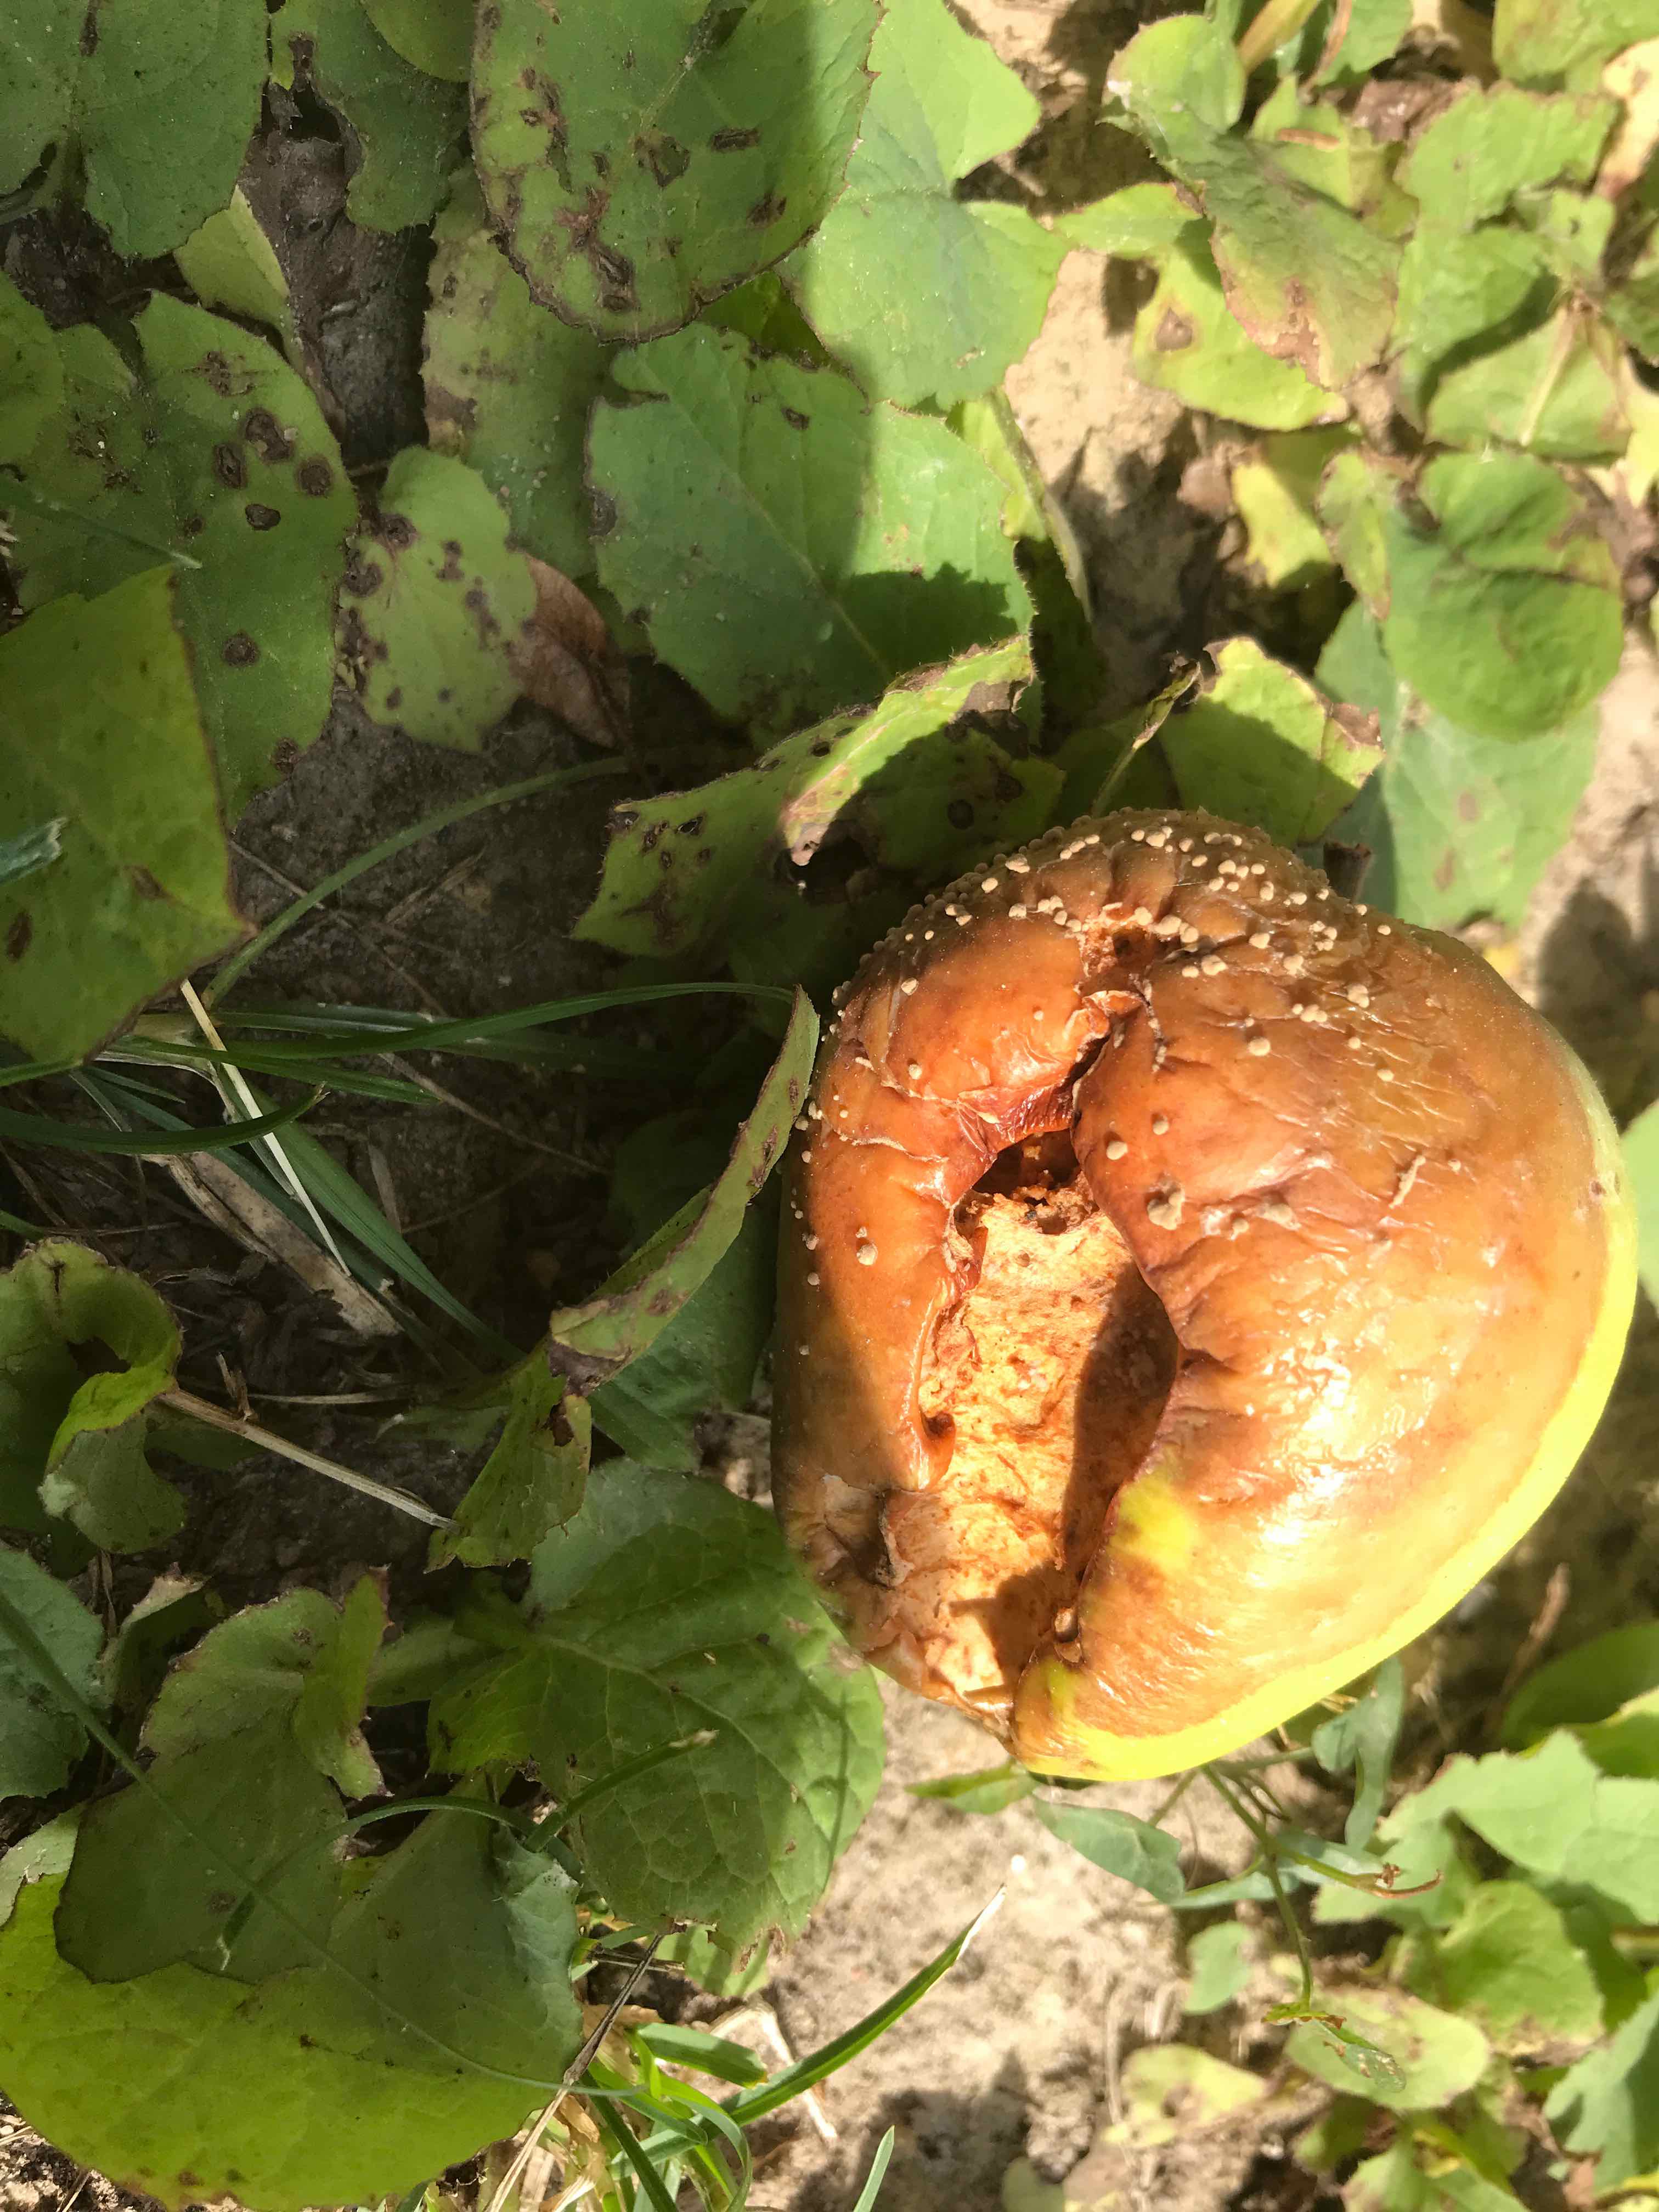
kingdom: Fungi
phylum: Ascomycota
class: Leotiomycetes
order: Helotiales
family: Sclerotiniaceae
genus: Monilinia
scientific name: Monilinia fructigena
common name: æble-knoldskive
